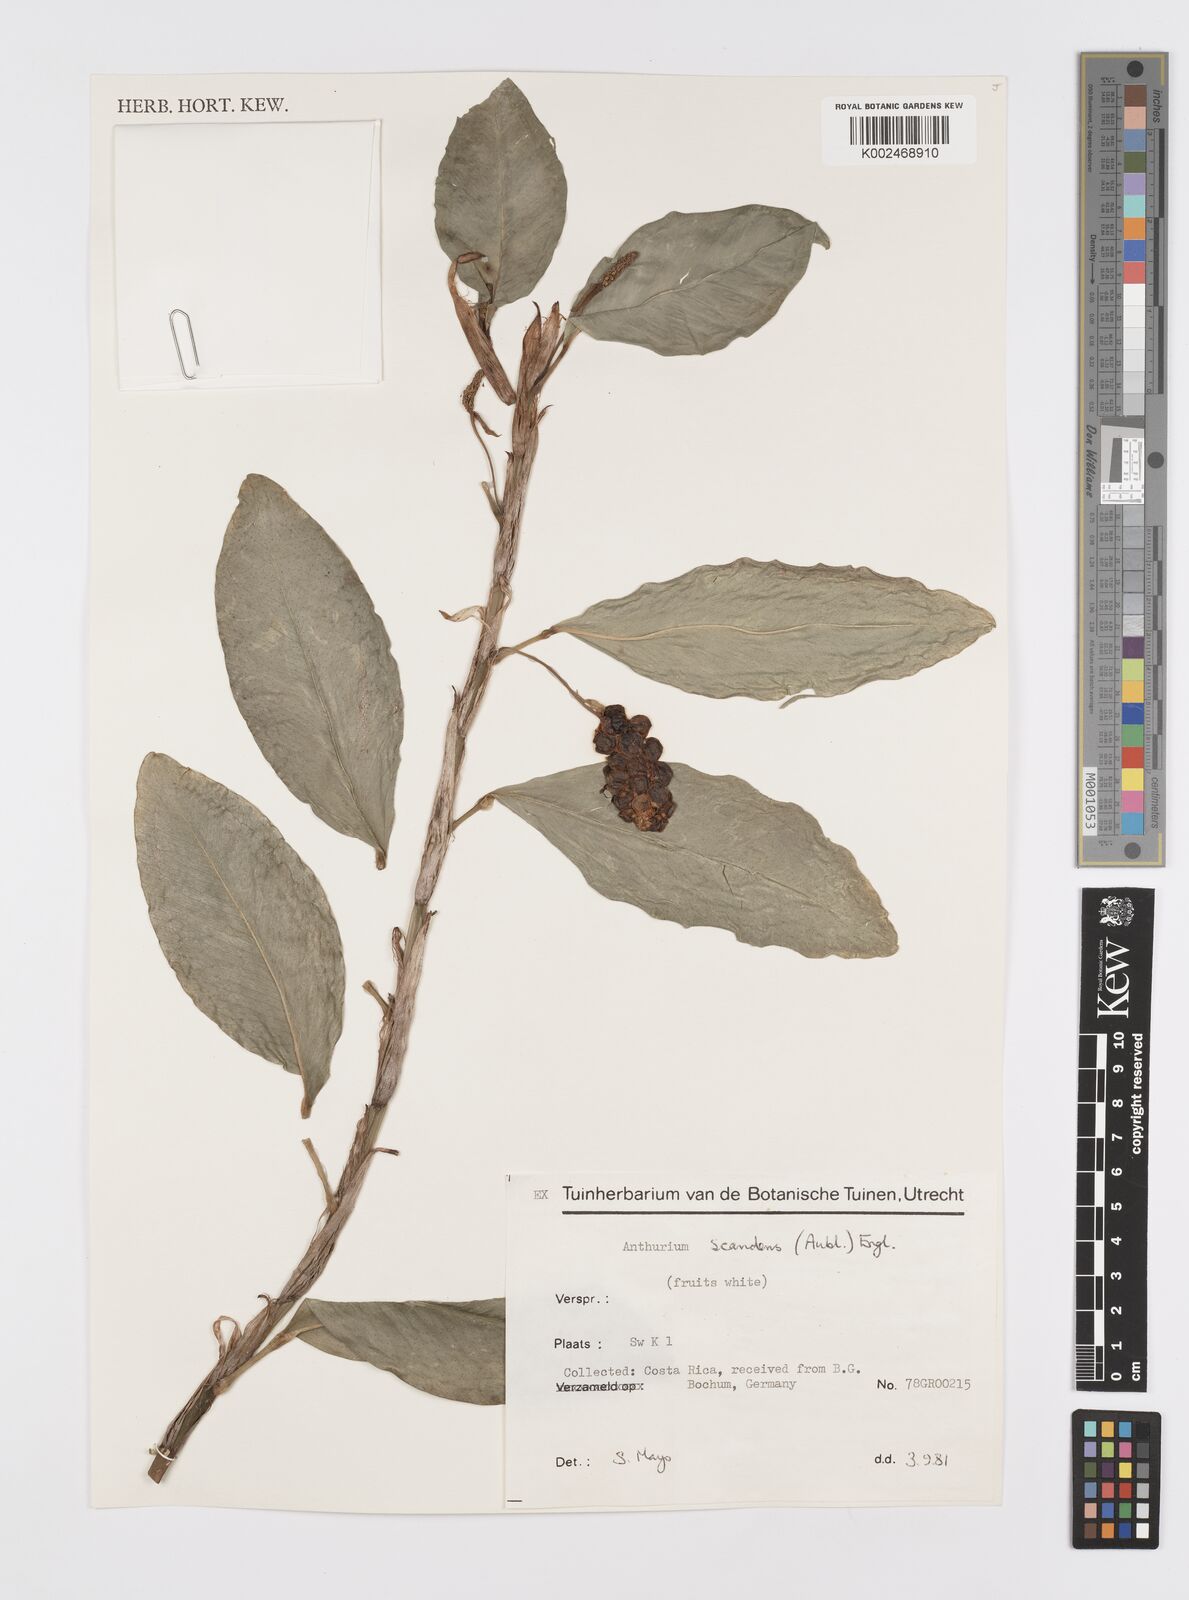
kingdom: Plantae
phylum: Tracheophyta
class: Liliopsida
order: Alismatales
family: Araceae
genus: Anthurium
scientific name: Anthurium scandens
